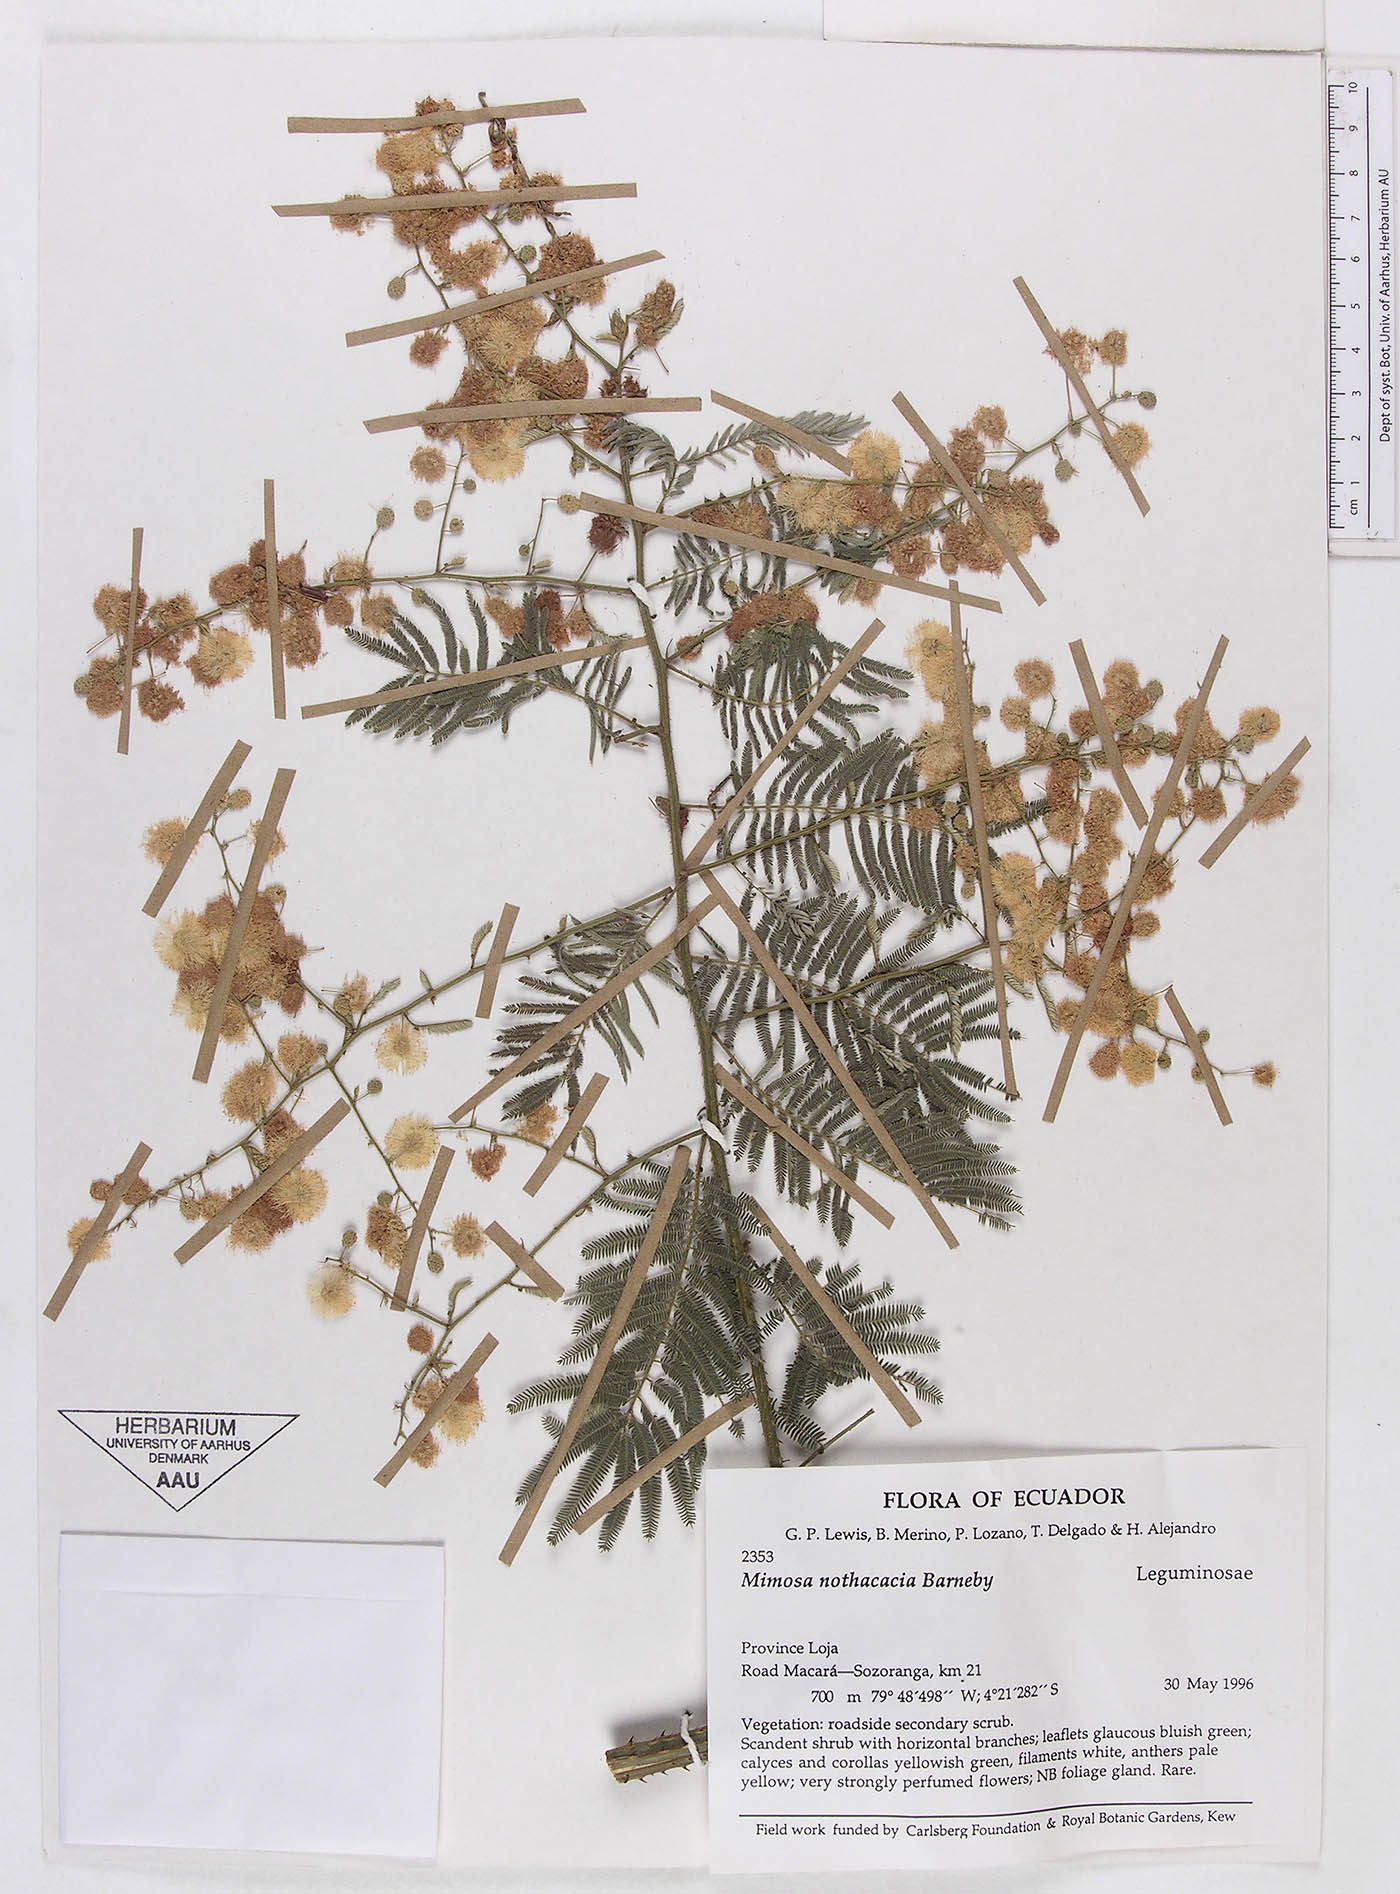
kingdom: Plantae
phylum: Tracheophyta
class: Magnoliopsida
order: Fabales
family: Fabaceae
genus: Mimosa
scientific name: Mimosa nothacacia
